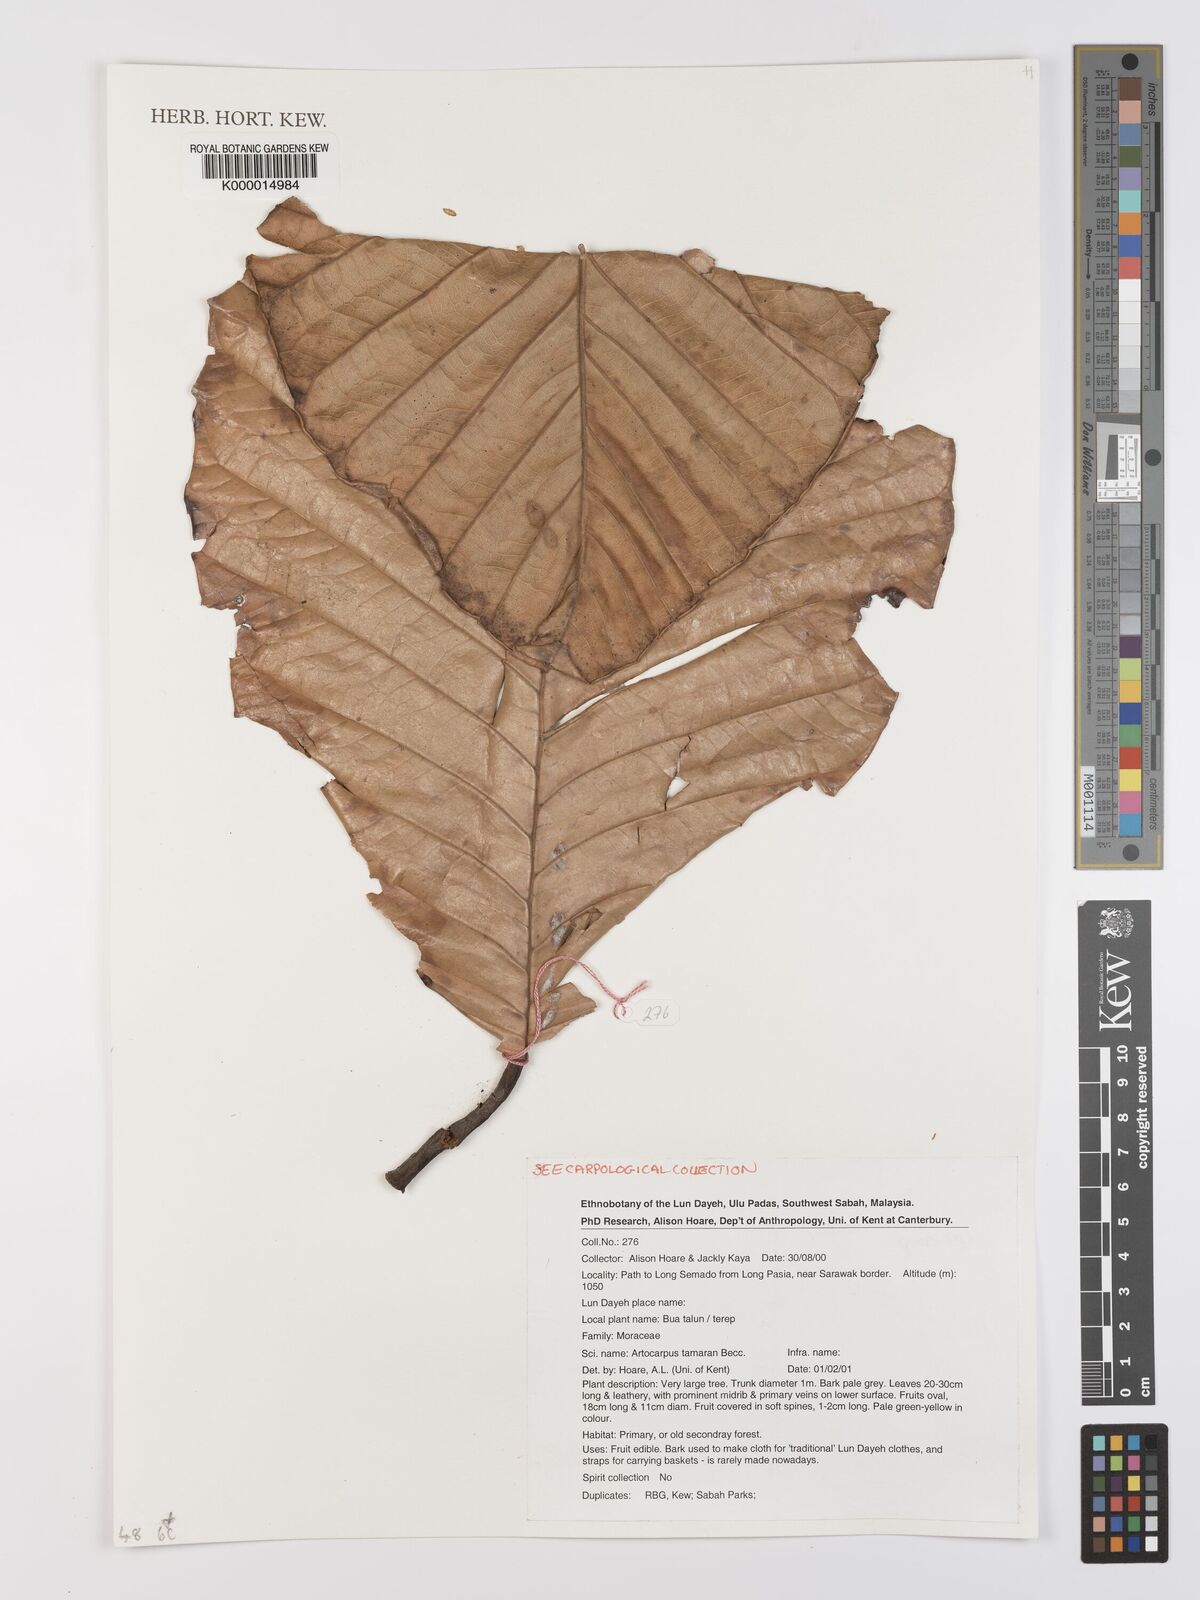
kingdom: Plantae
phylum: Tracheophyta
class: Magnoliopsida
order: Rosales
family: Moraceae
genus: Artocarpus
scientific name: Artocarpus tamaran
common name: Elephant jack
